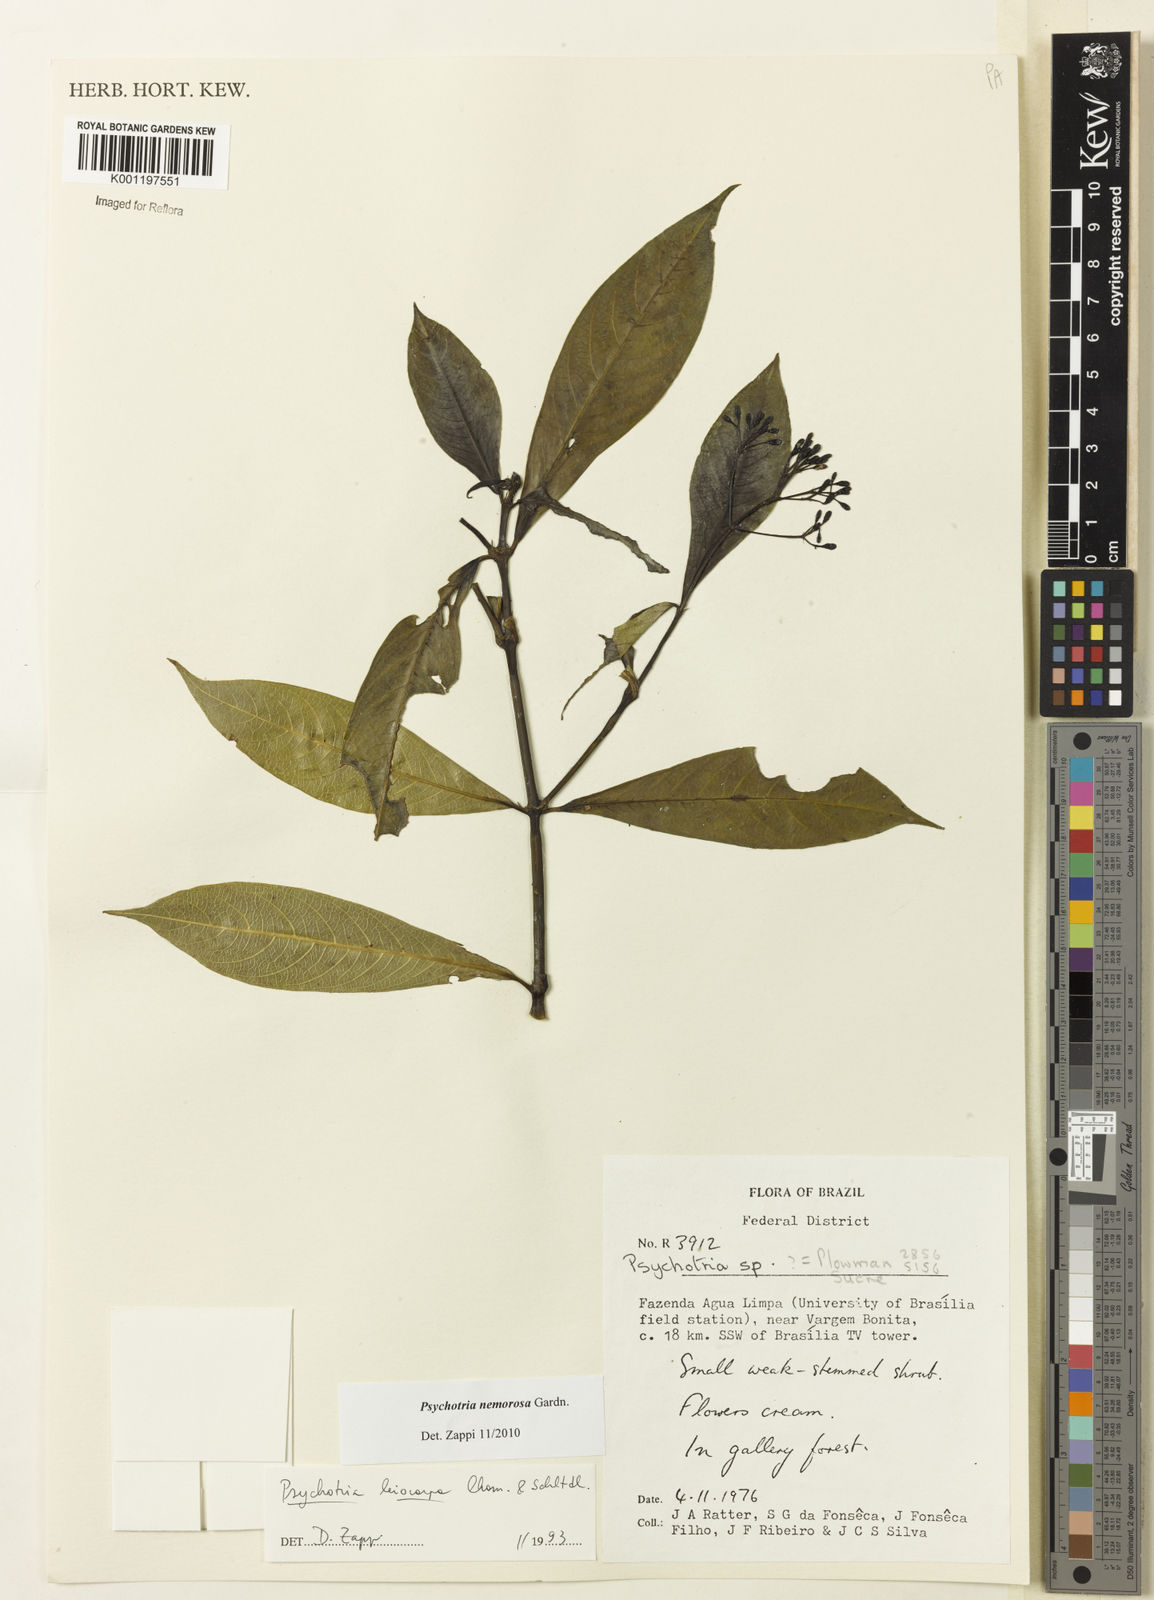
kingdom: Plantae
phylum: Tracheophyta
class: Magnoliopsida
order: Gentianales
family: Rubiaceae
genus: Psychotria
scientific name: Psychotria nemorosa
